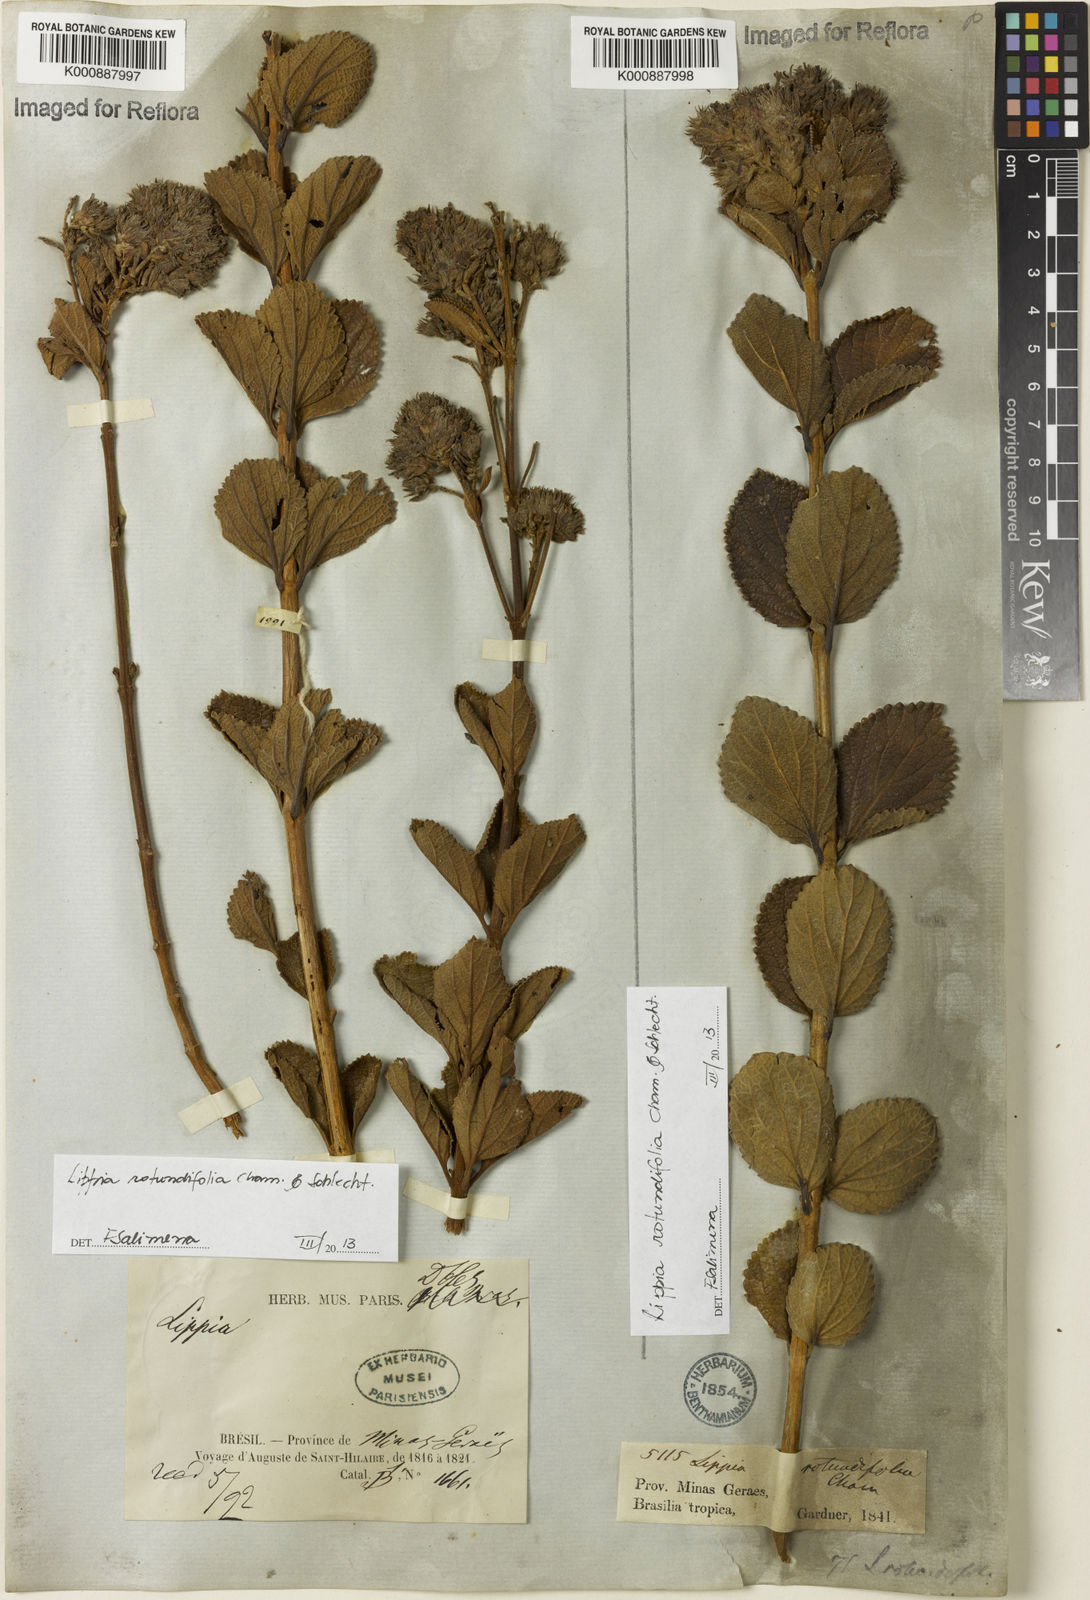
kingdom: Plantae
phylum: Tracheophyta
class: Magnoliopsida
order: Lamiales
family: Verbenaceae
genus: Lippia
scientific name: Lippia rotundifolia
